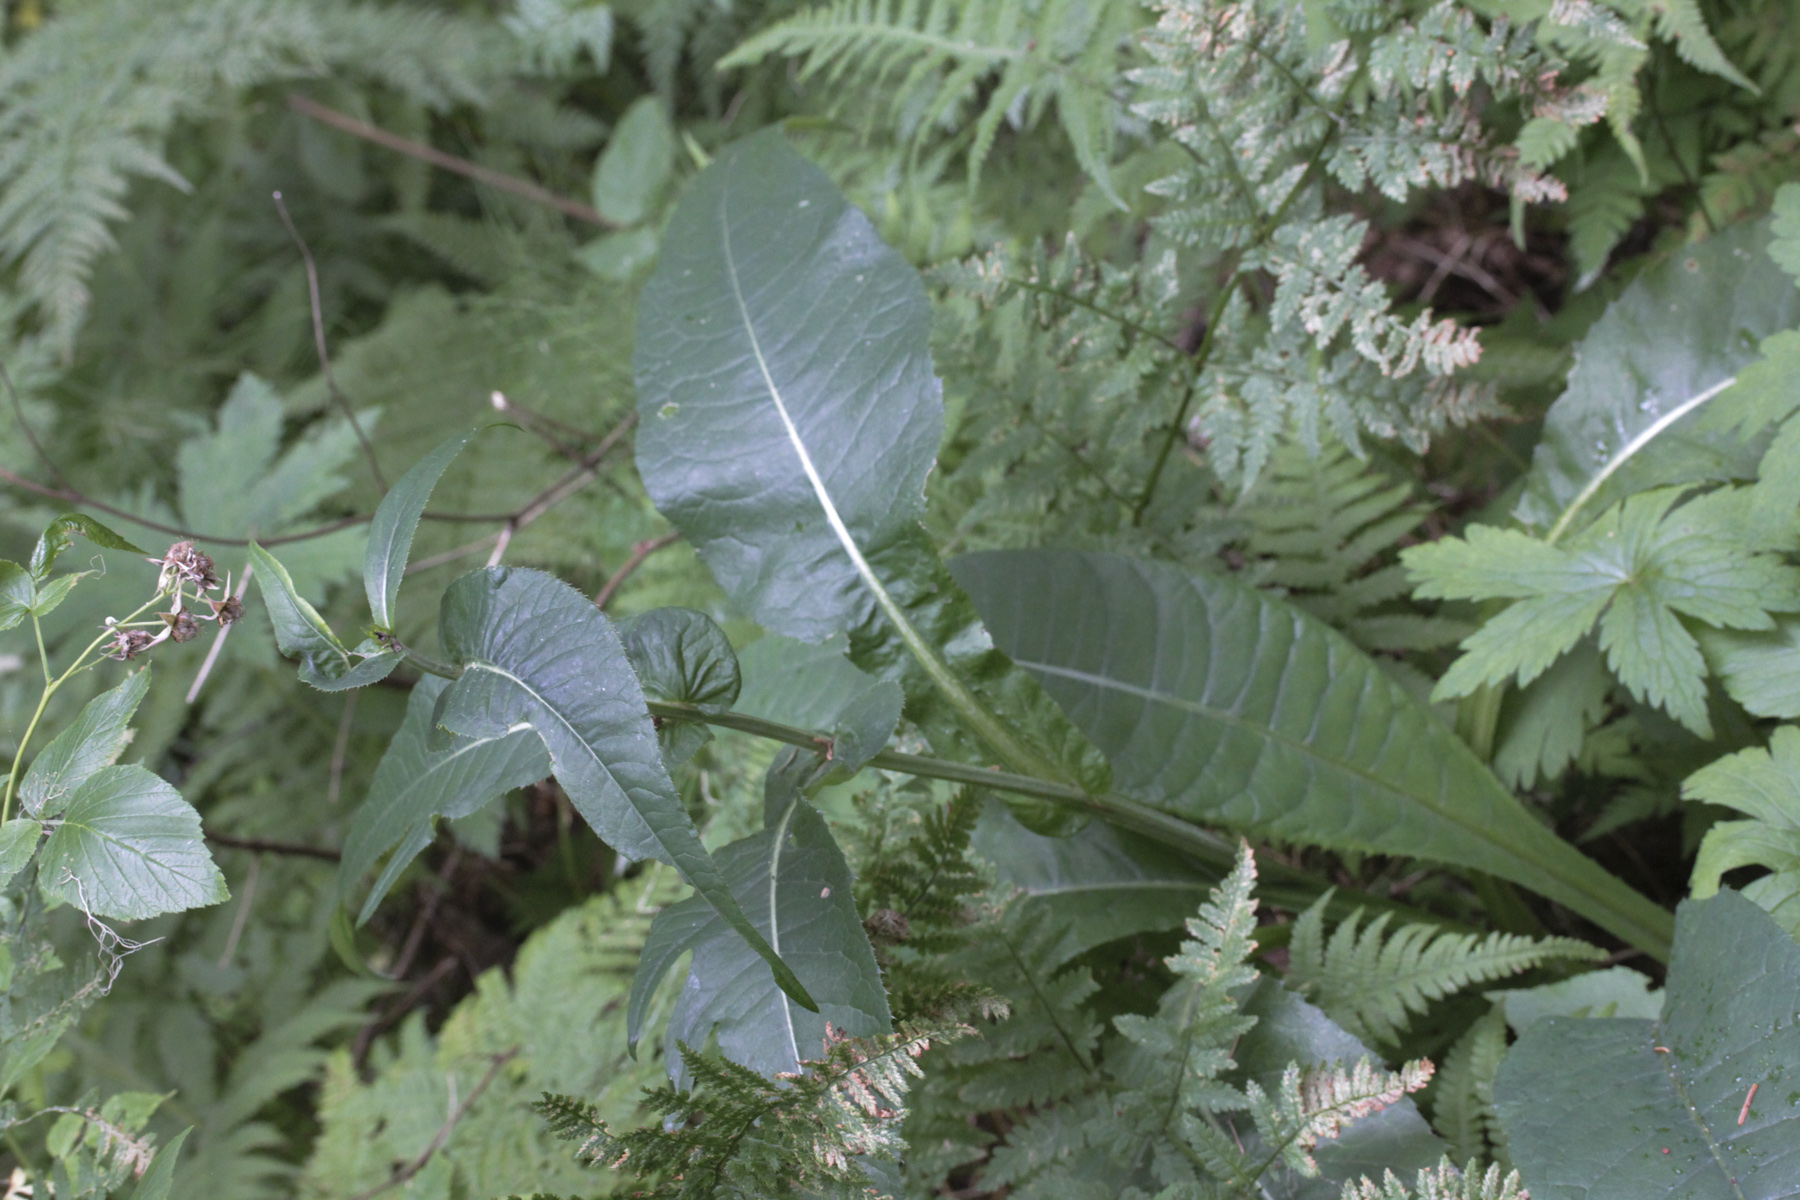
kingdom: Plantae
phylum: Tracheophyta
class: Magnoliopsida
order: Asterales
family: Asteraceae
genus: Cirsium
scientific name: Cirsium heterophyllum
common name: Melancholy thistle
